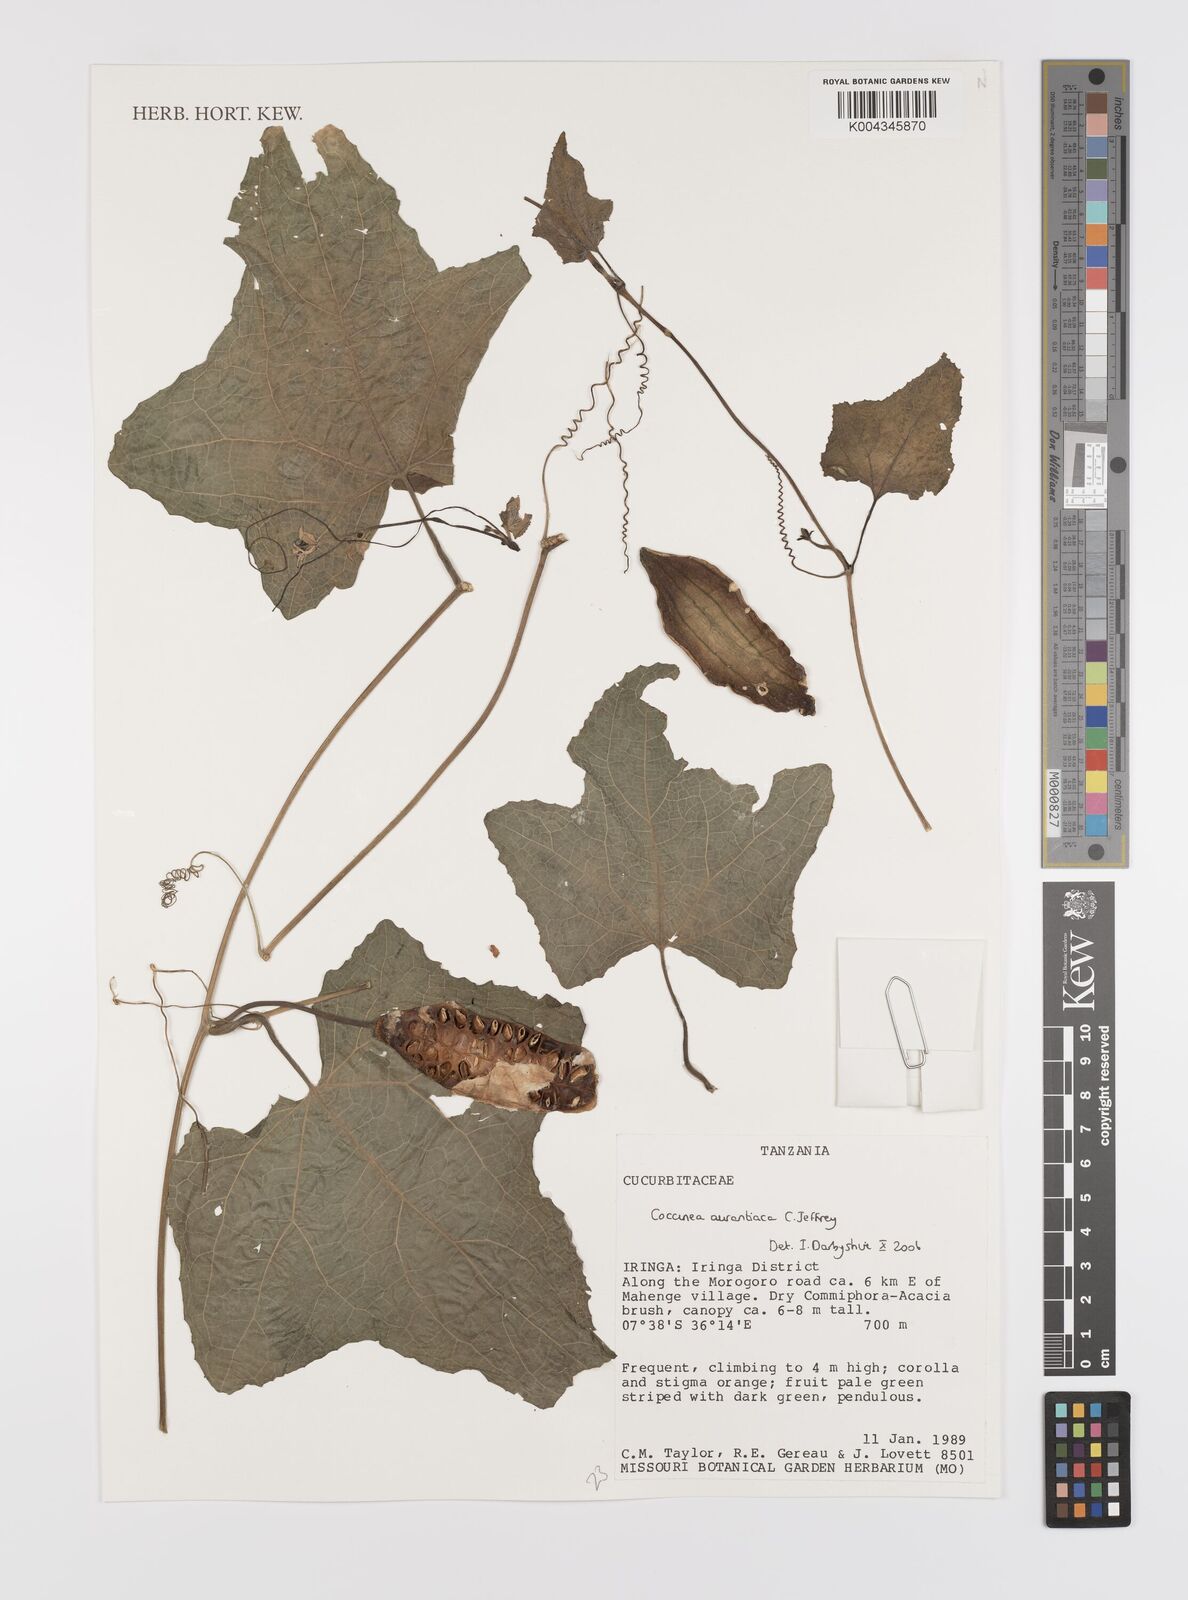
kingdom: Plantae
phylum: Tracheophyta
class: Magnoliopsida
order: Cucurbitales
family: Cucurbitaceae
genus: Coccinia
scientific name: Coccinia adoensis
